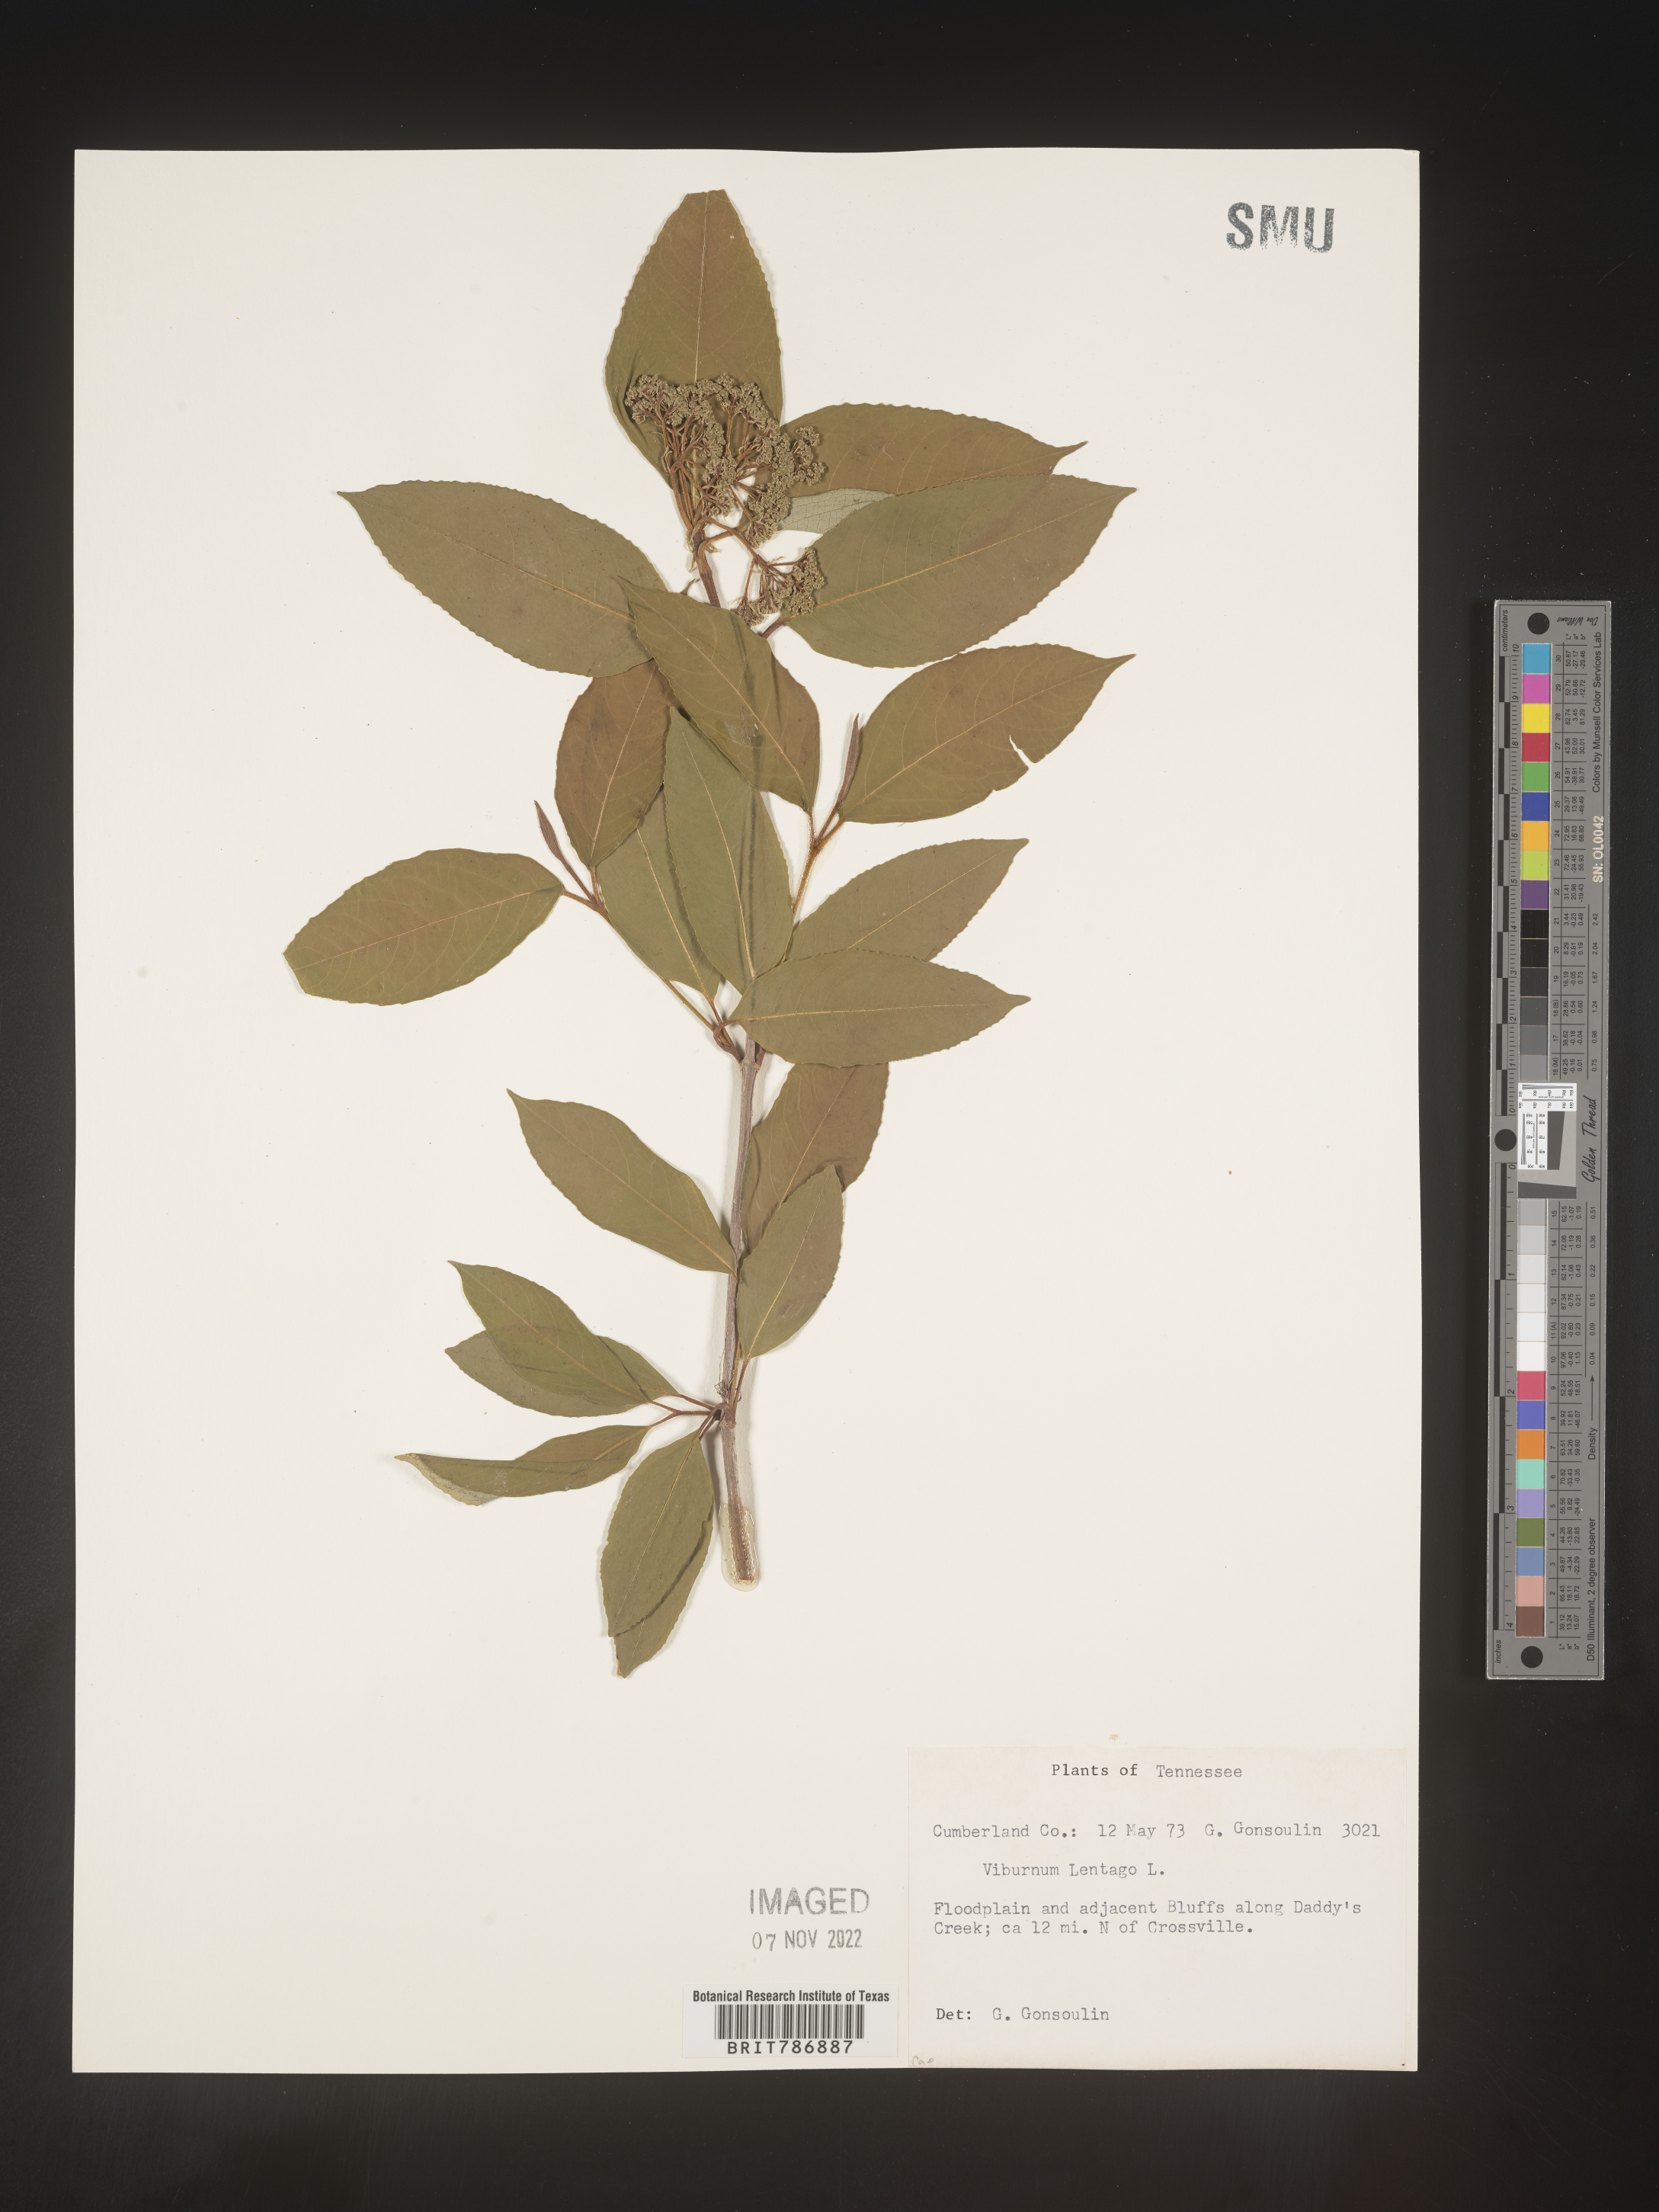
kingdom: Plantae
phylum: Tracheophyta
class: Magnoliopsida
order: Dipsacales
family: Viburnaceae
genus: Viburnum
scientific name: Viburnum lentago
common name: Black haw
